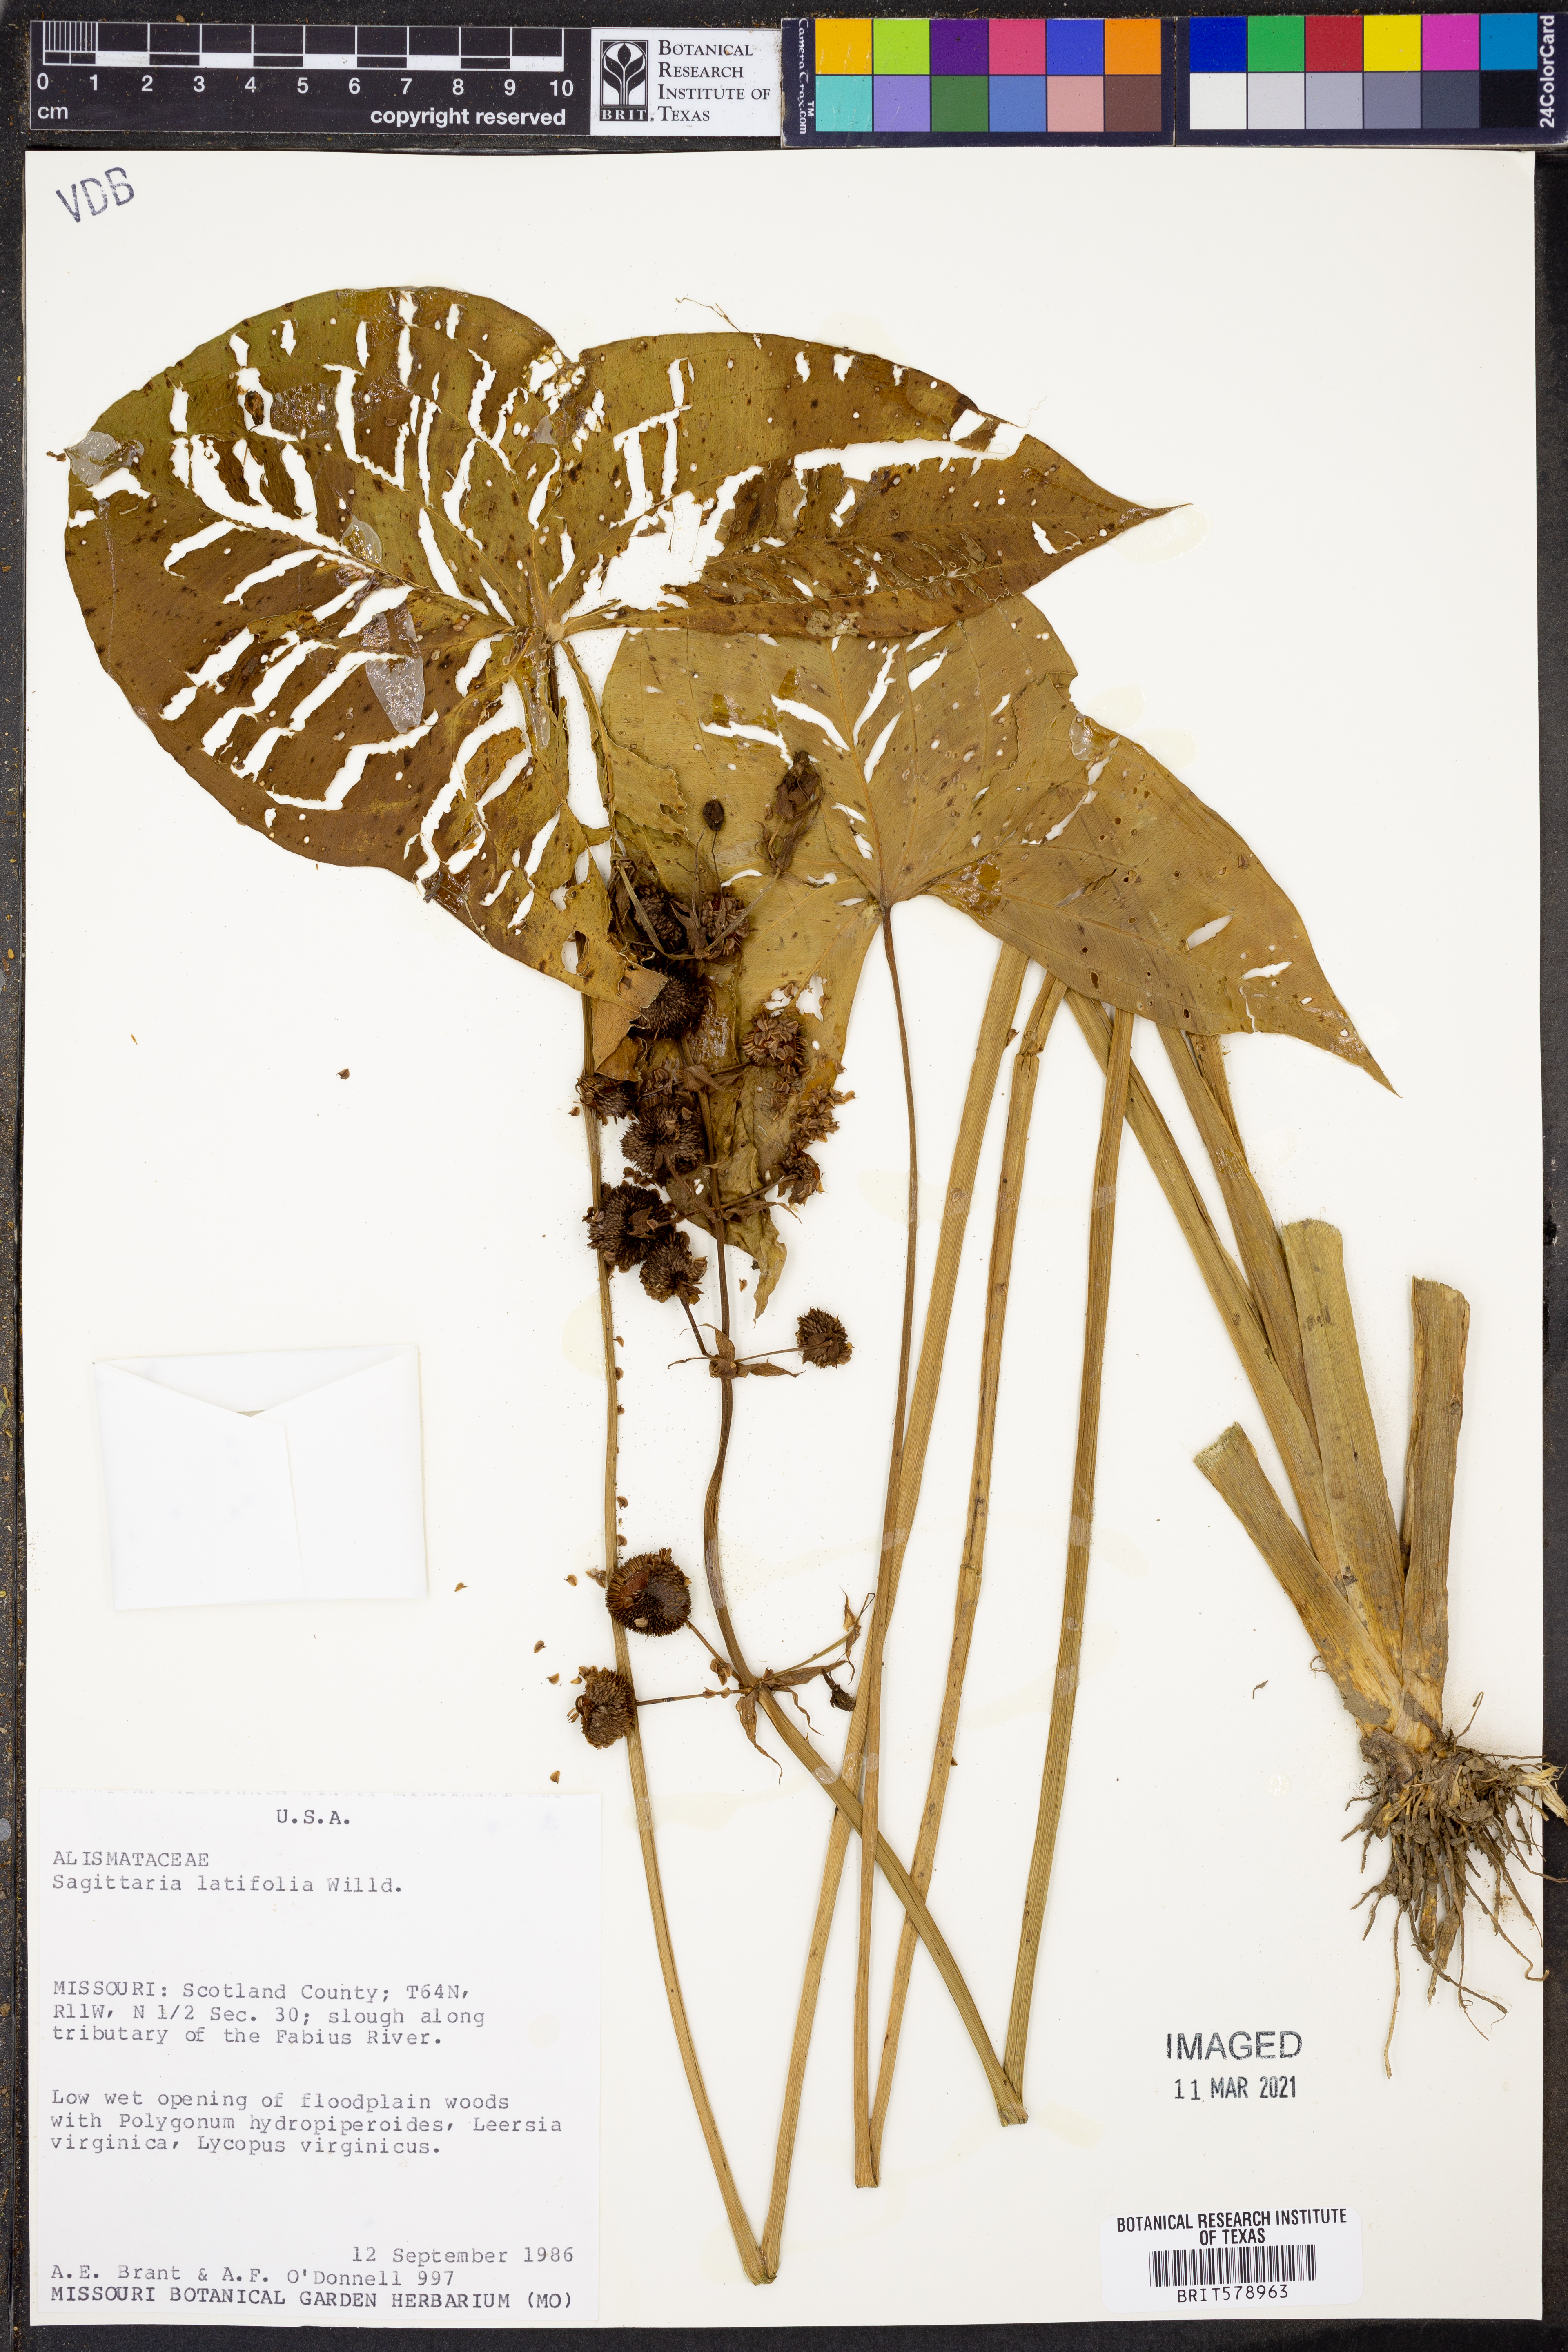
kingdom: Plantae
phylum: Tracheophyta
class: Liliopsida
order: Alismatales
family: Alismataceae
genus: Sagittaria
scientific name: Sagittaria latifolia
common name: Duck-potato
